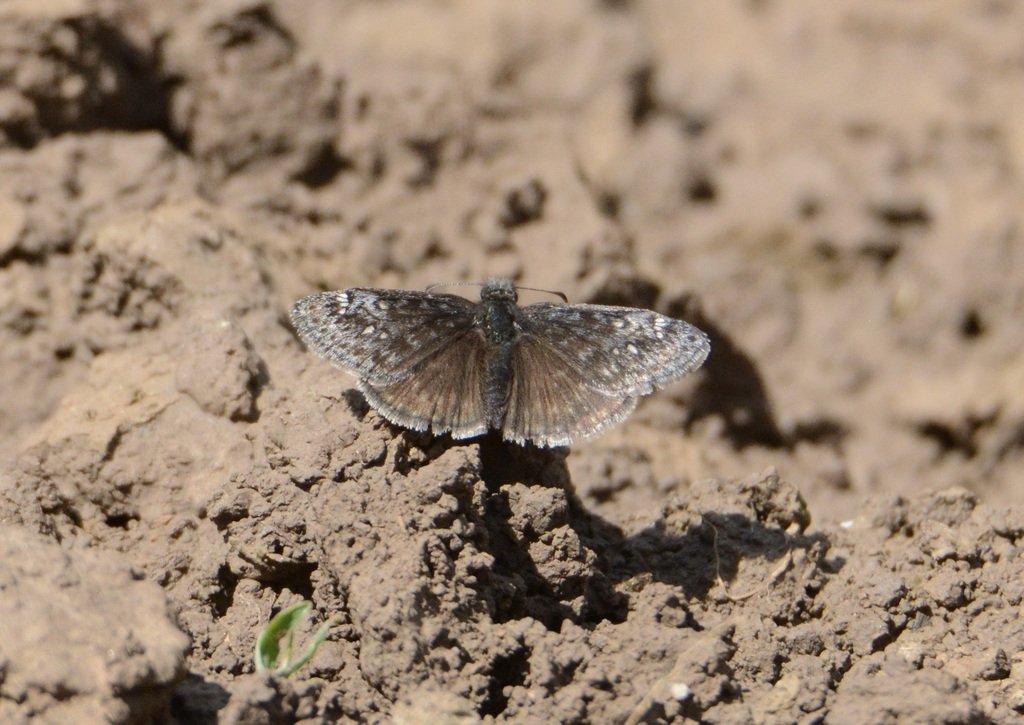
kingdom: Animalia
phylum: Arthropoda
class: Insecta
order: Lepidoptera
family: Hesperiidae
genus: Gesta
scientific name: Gesta
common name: Persius Duskywing
